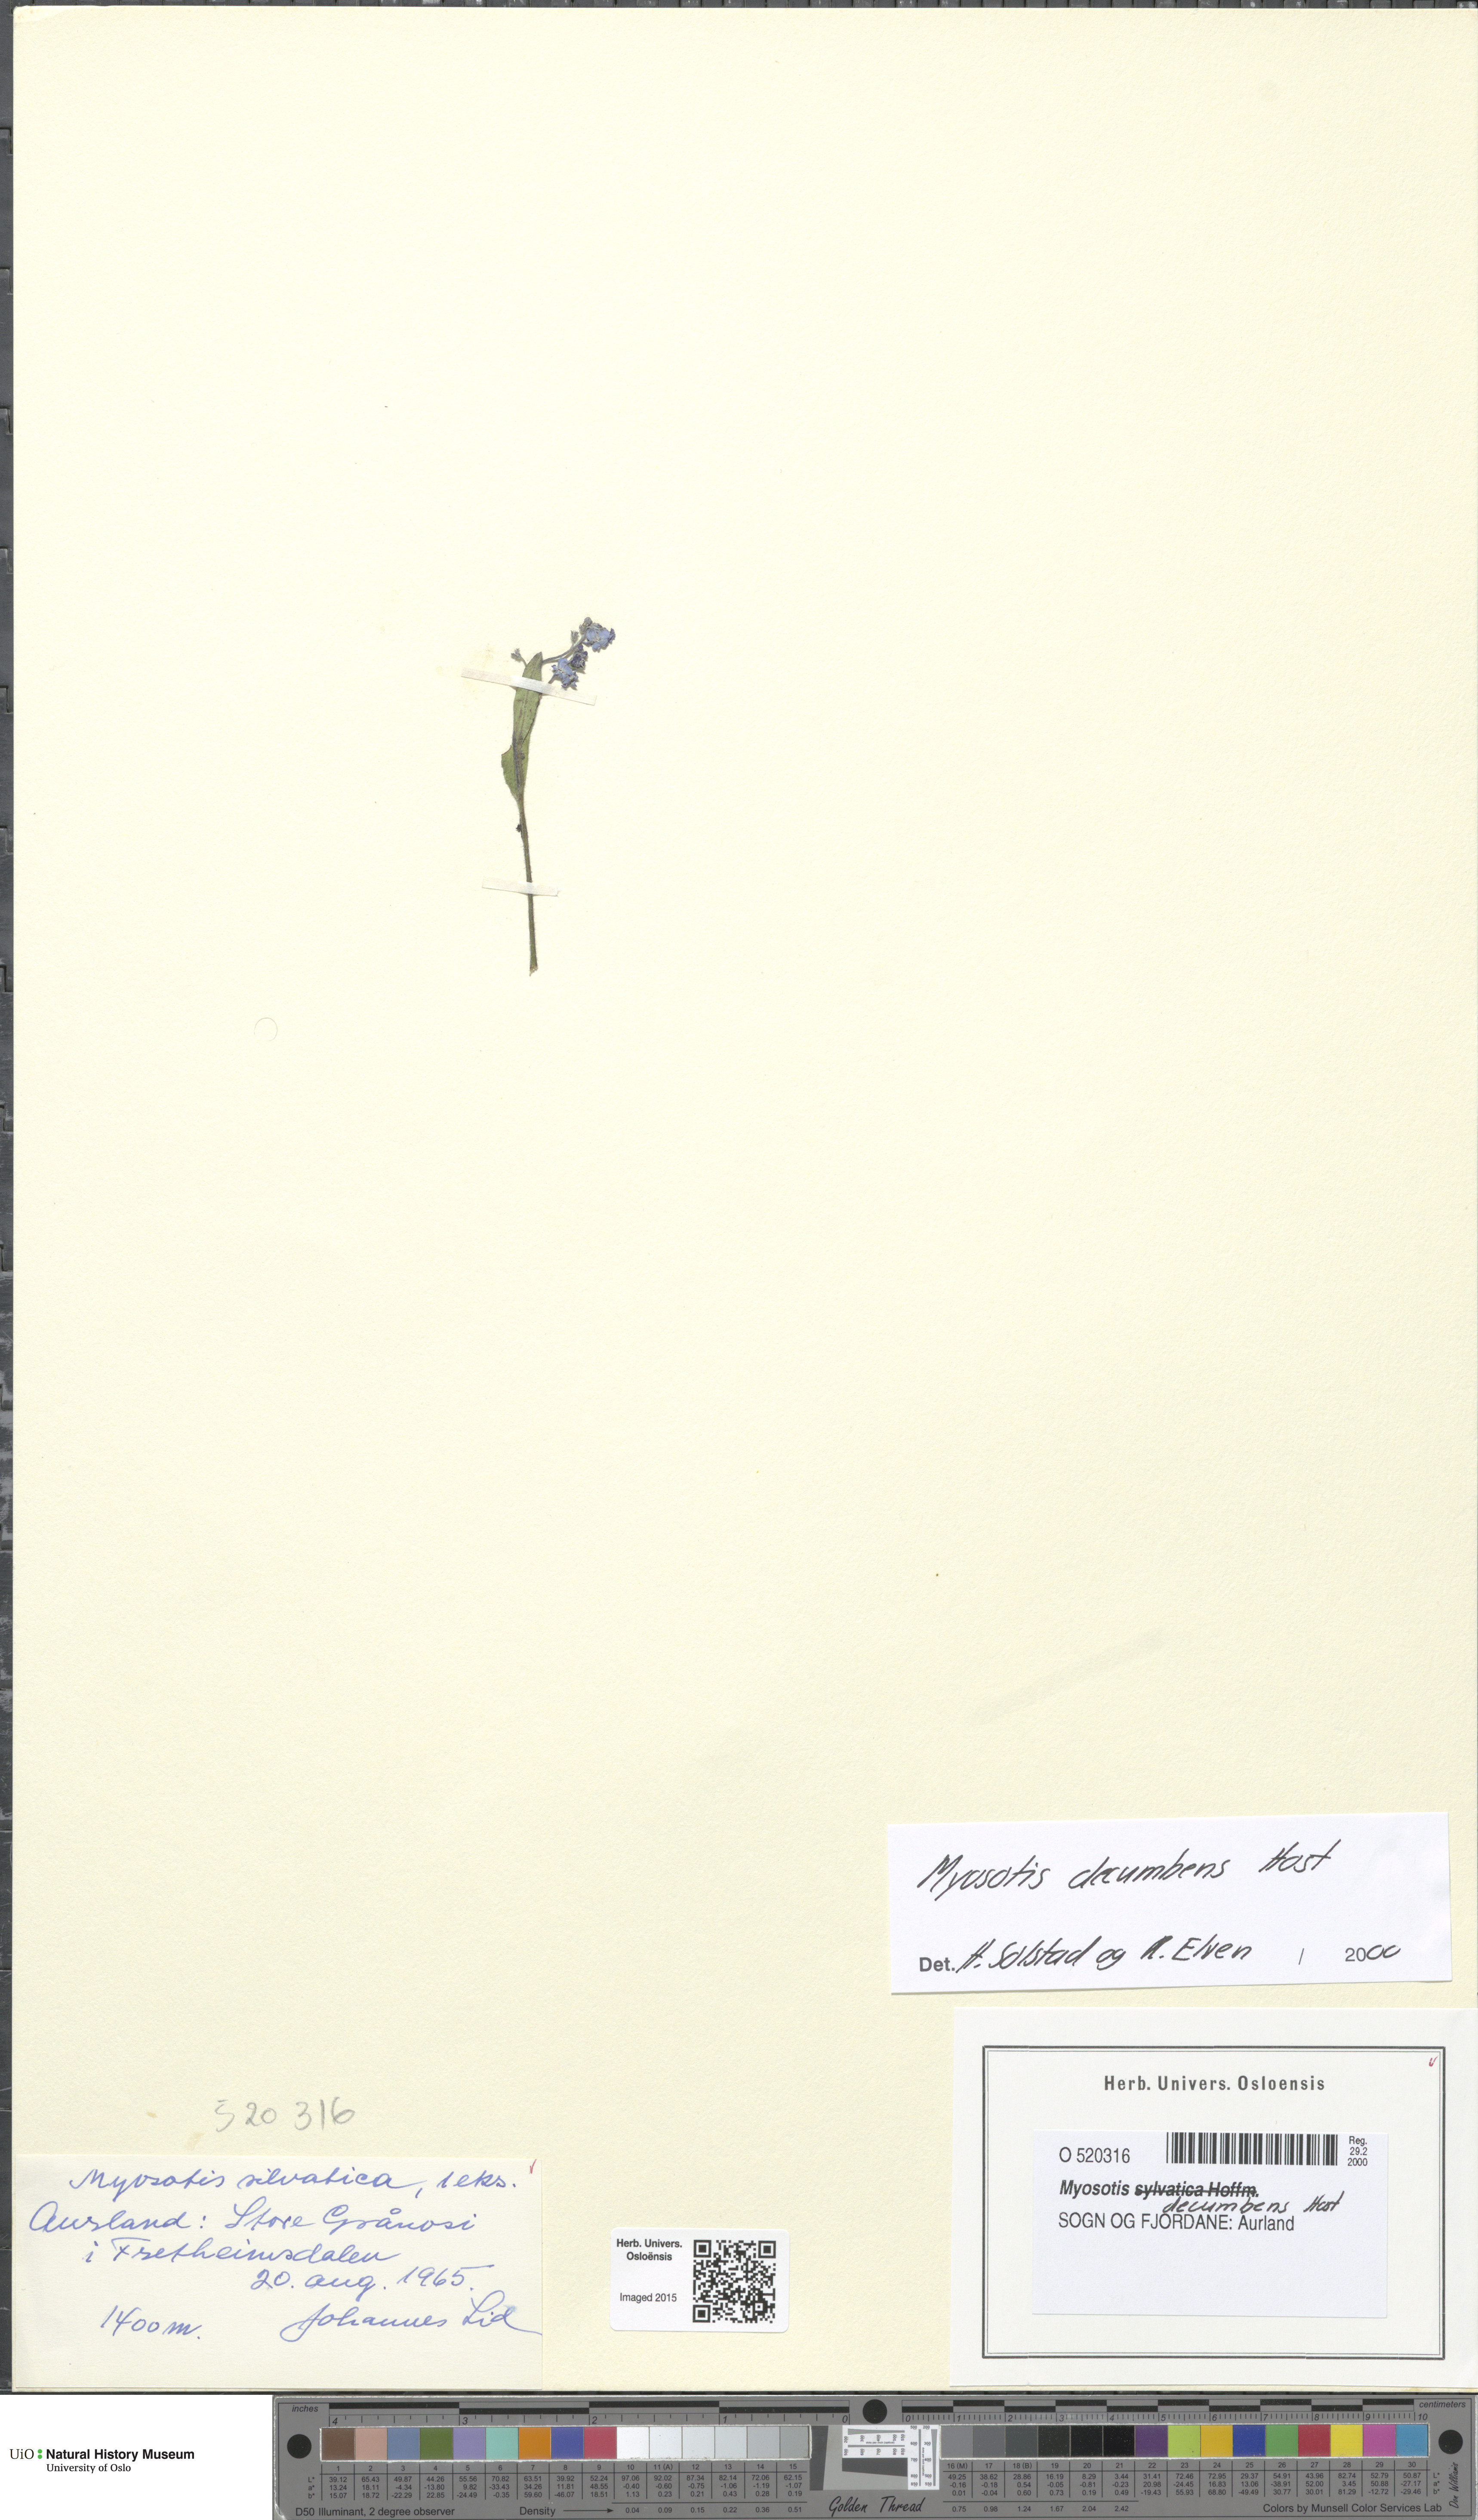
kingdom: Plantae
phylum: Tracheophyta
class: Magnoliopsida
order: Boraginales
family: Boraginaceae
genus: Myosotis
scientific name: Myosotis decumbens
